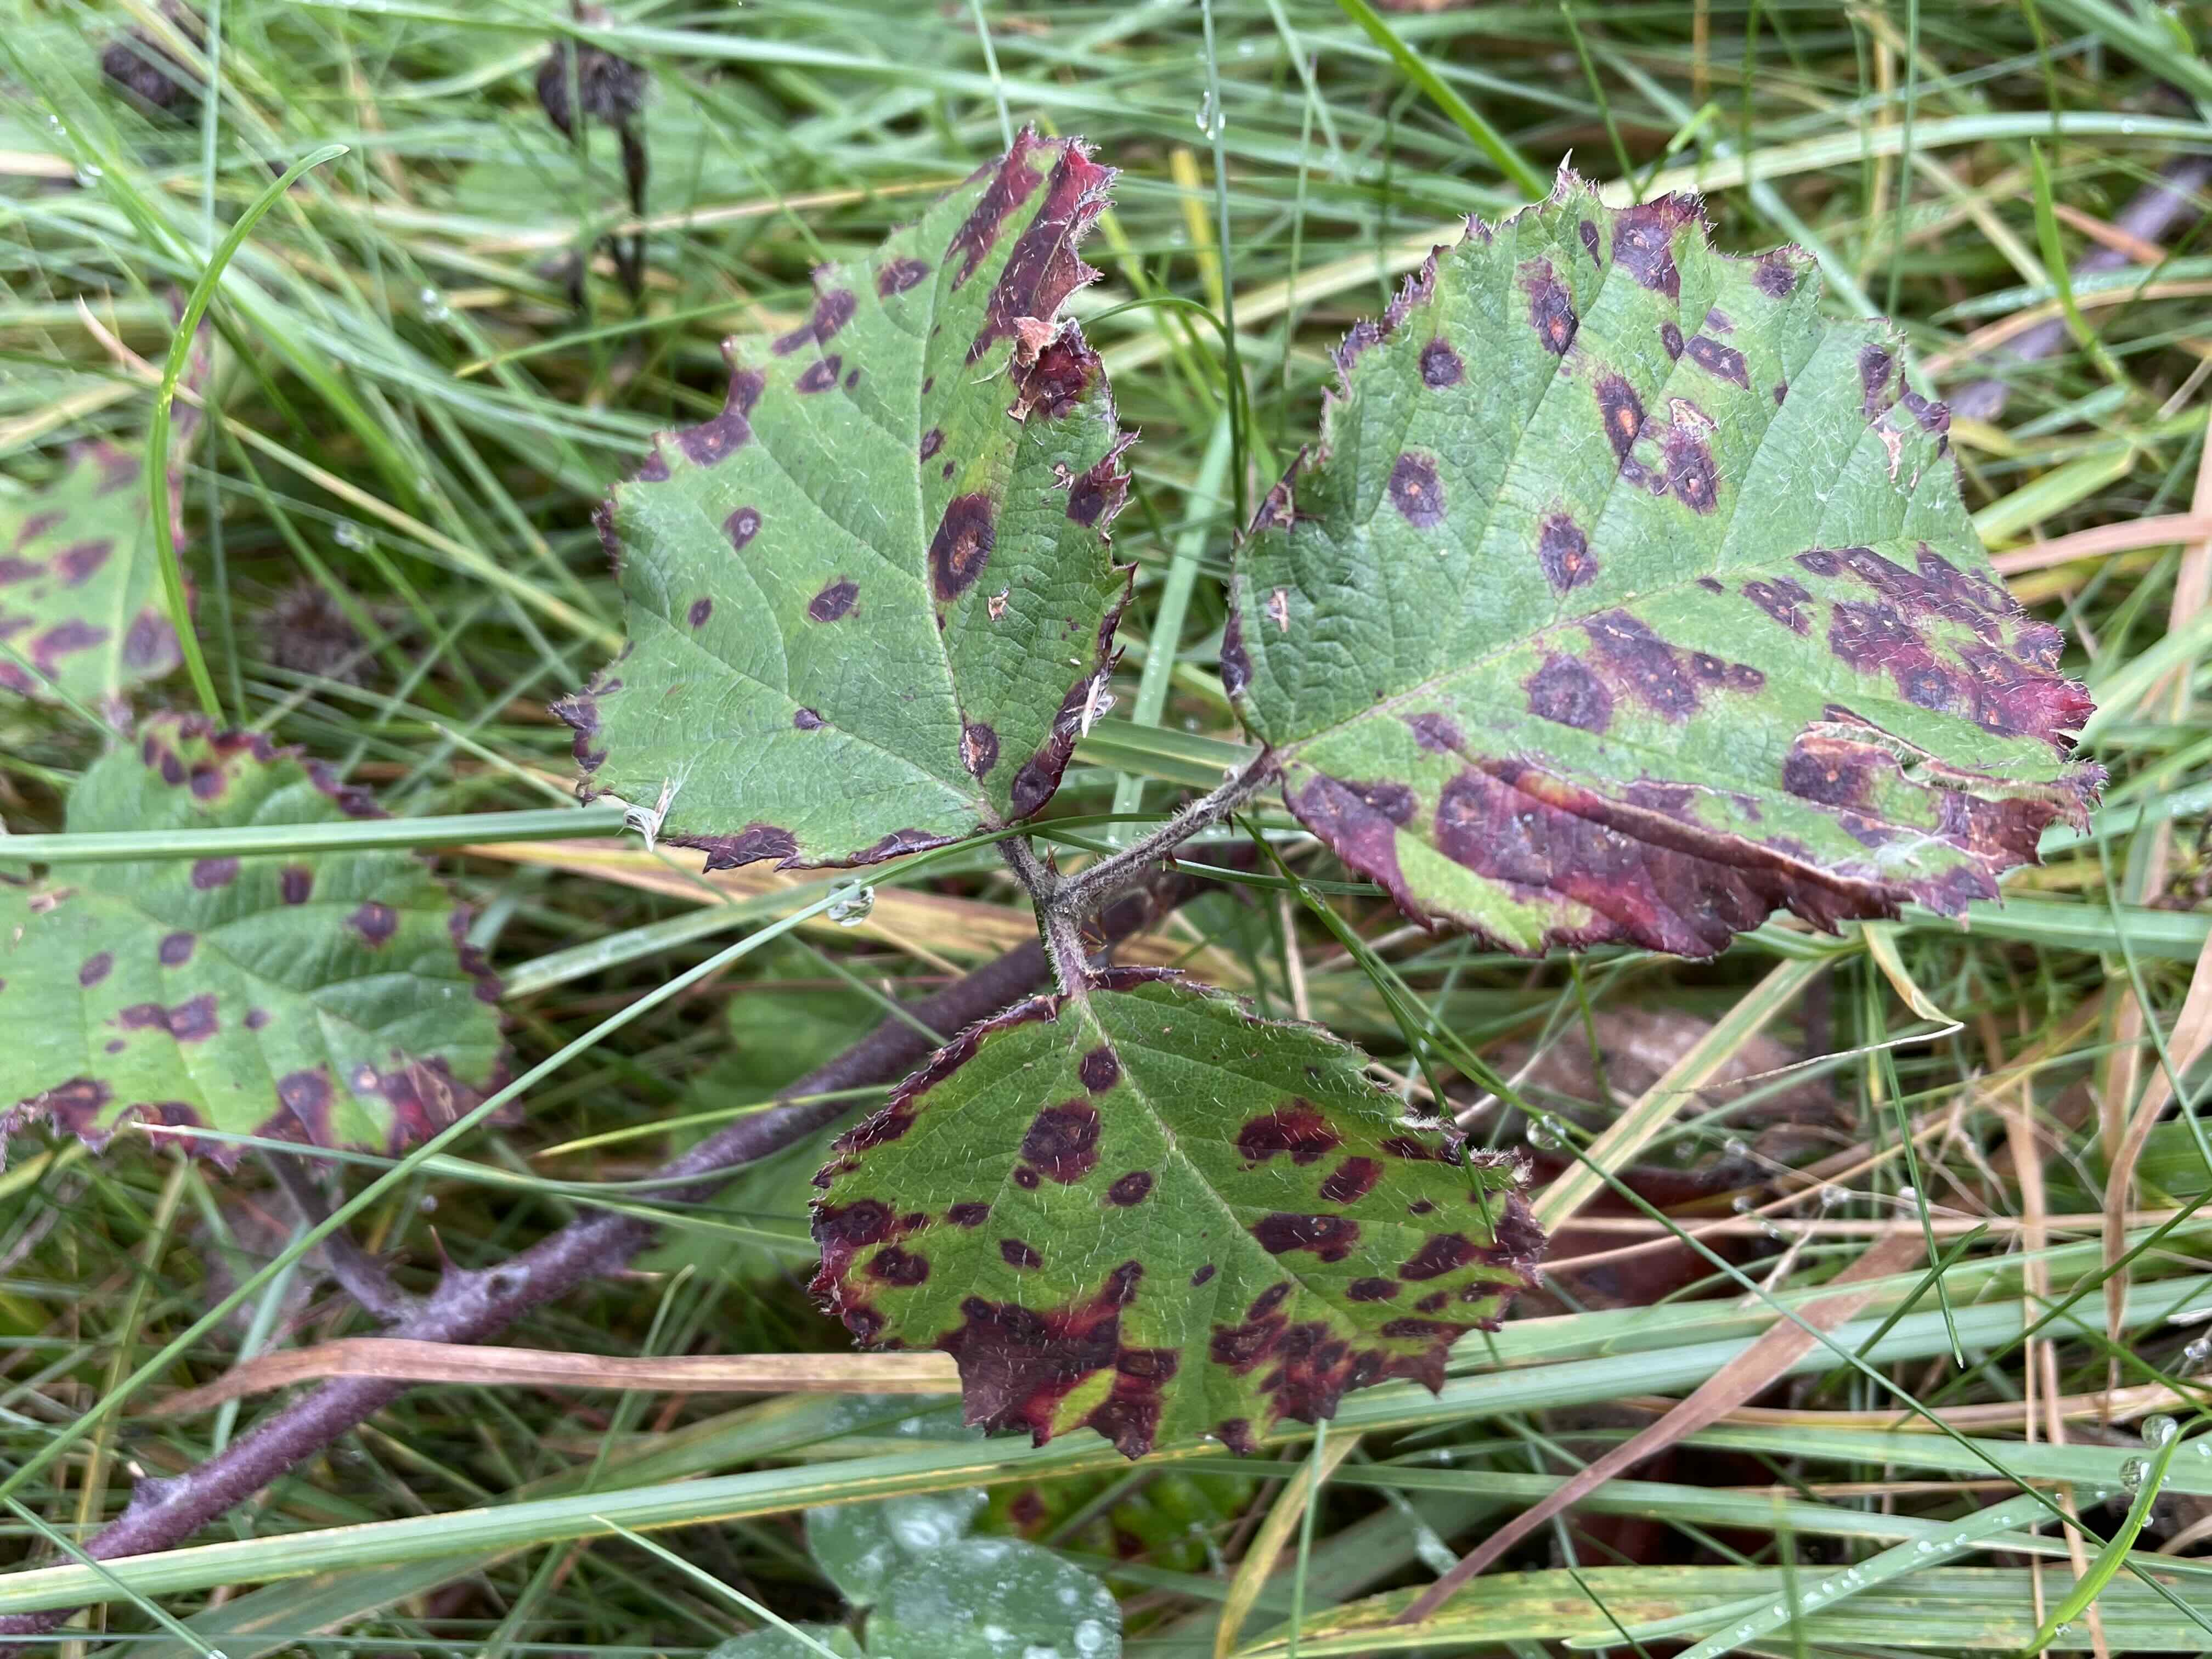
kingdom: Fungi
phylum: Basidiomycota
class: Pucciniomycetes
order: Pucciniales
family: Phragmidiaceae
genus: Phragmidium
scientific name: Phragmidium violaceum
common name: violet flercellerust
